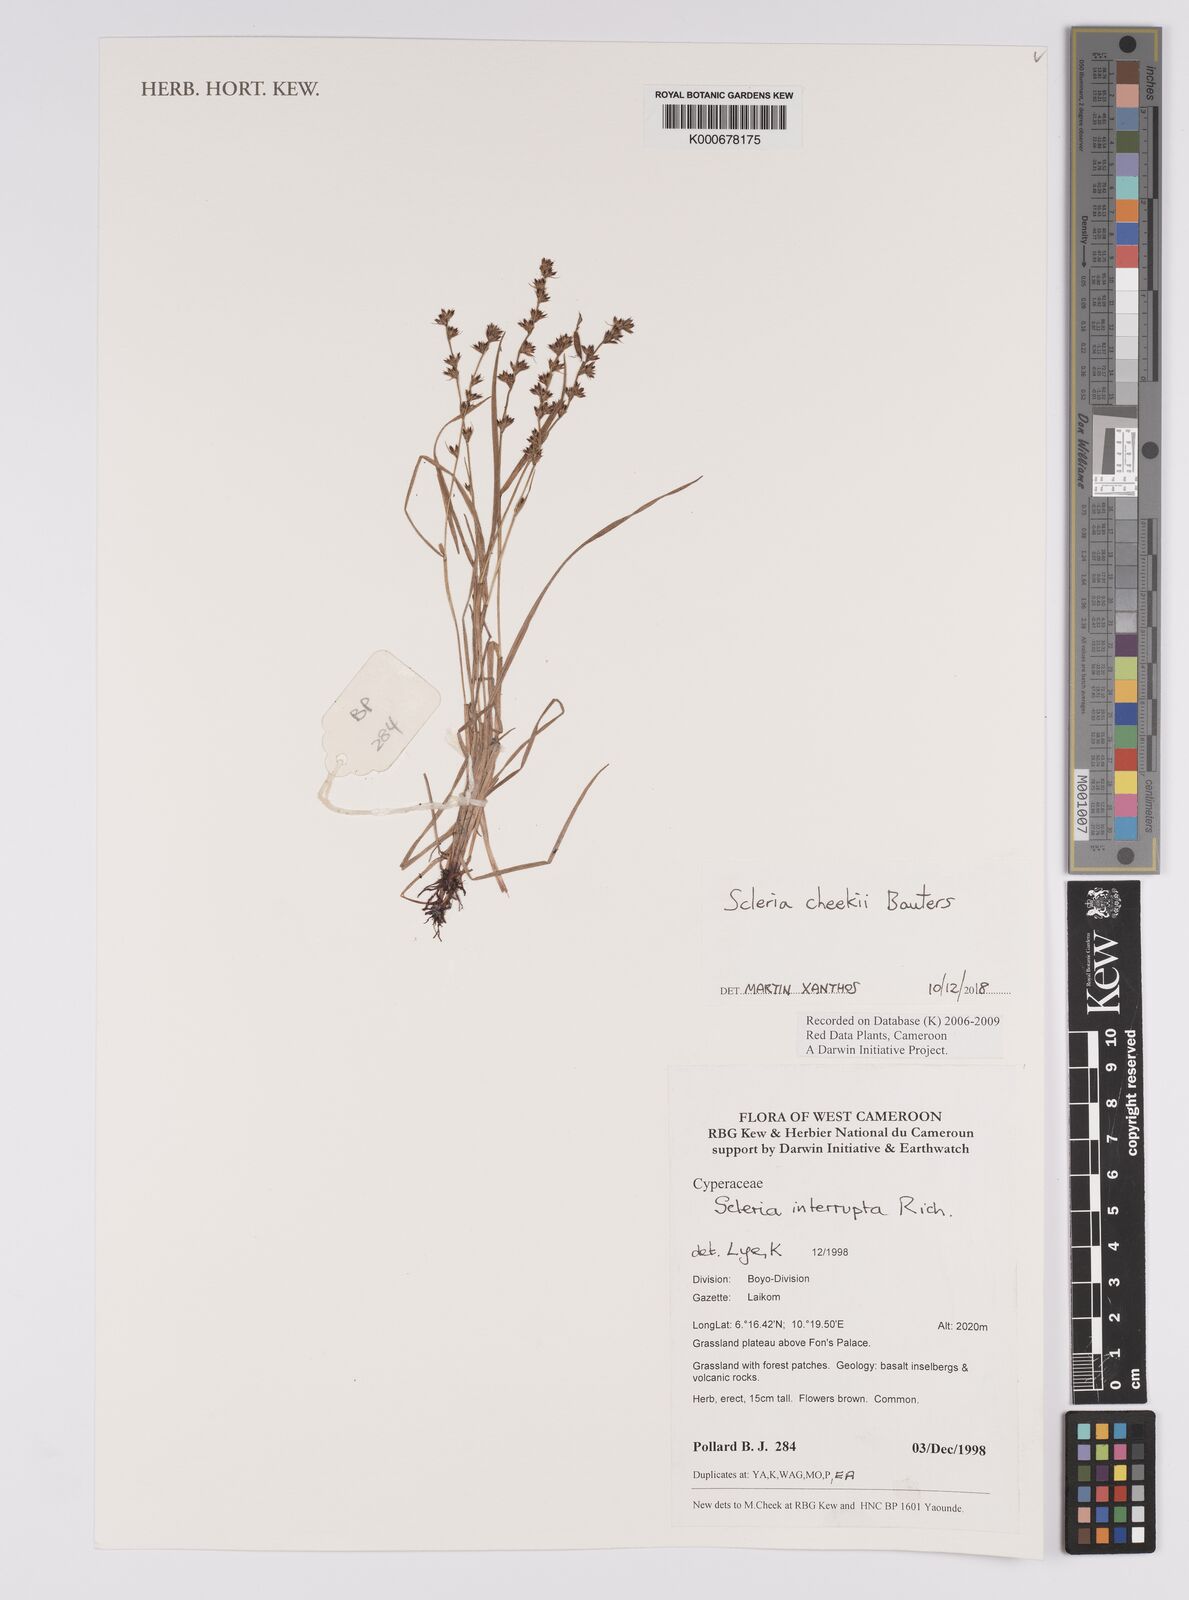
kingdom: Plantae
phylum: Tracheophyta
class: Liliopsida
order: Poales
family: Cyperaceae
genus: Scleria
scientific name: Scleria interrupta
